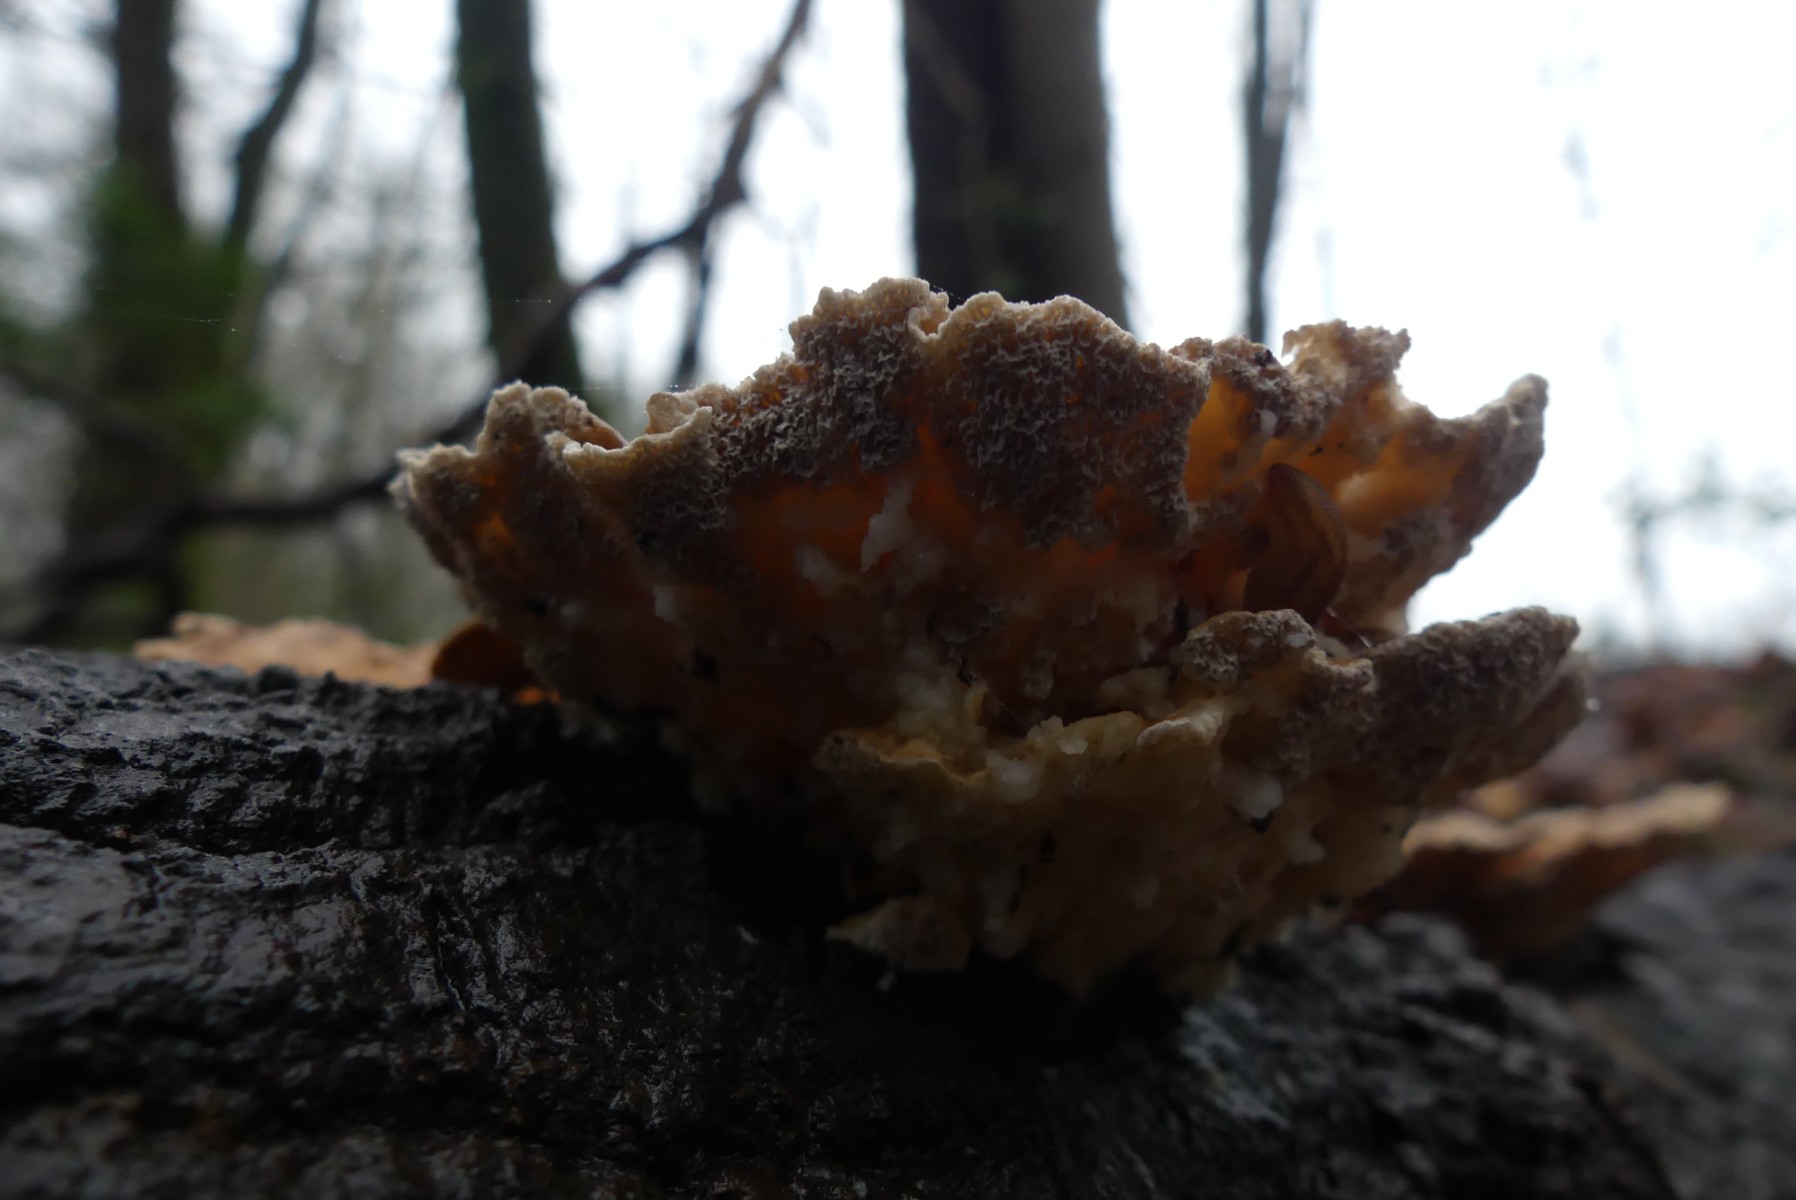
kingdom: Fungi
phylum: Basidiomycota
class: Agaricomycetes
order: Russulales
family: Stereaceae
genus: Stereum
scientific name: Stereum hirsutum
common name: håret lædersvamp
